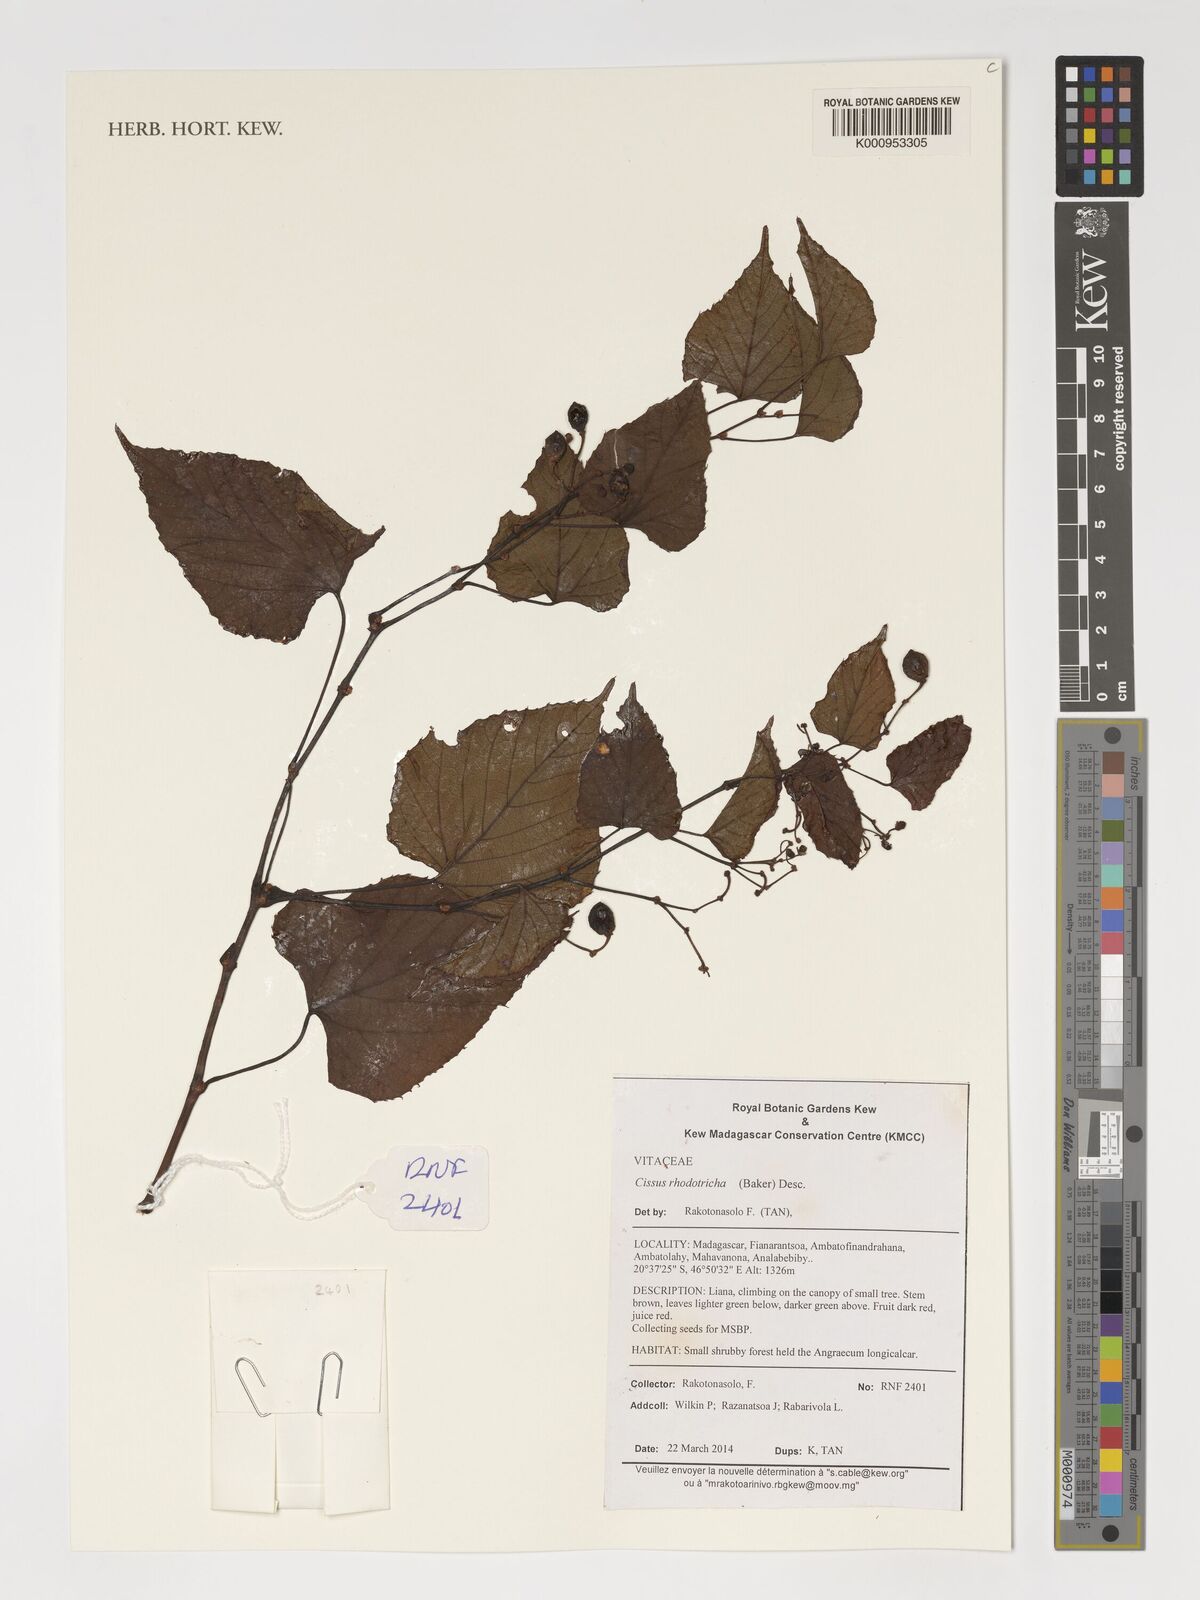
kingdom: Plantae
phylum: Tracheophyta
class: Magnoliopsida
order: Vitales
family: Vitaceae
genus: Cissus
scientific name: Cissus rhodotricha
